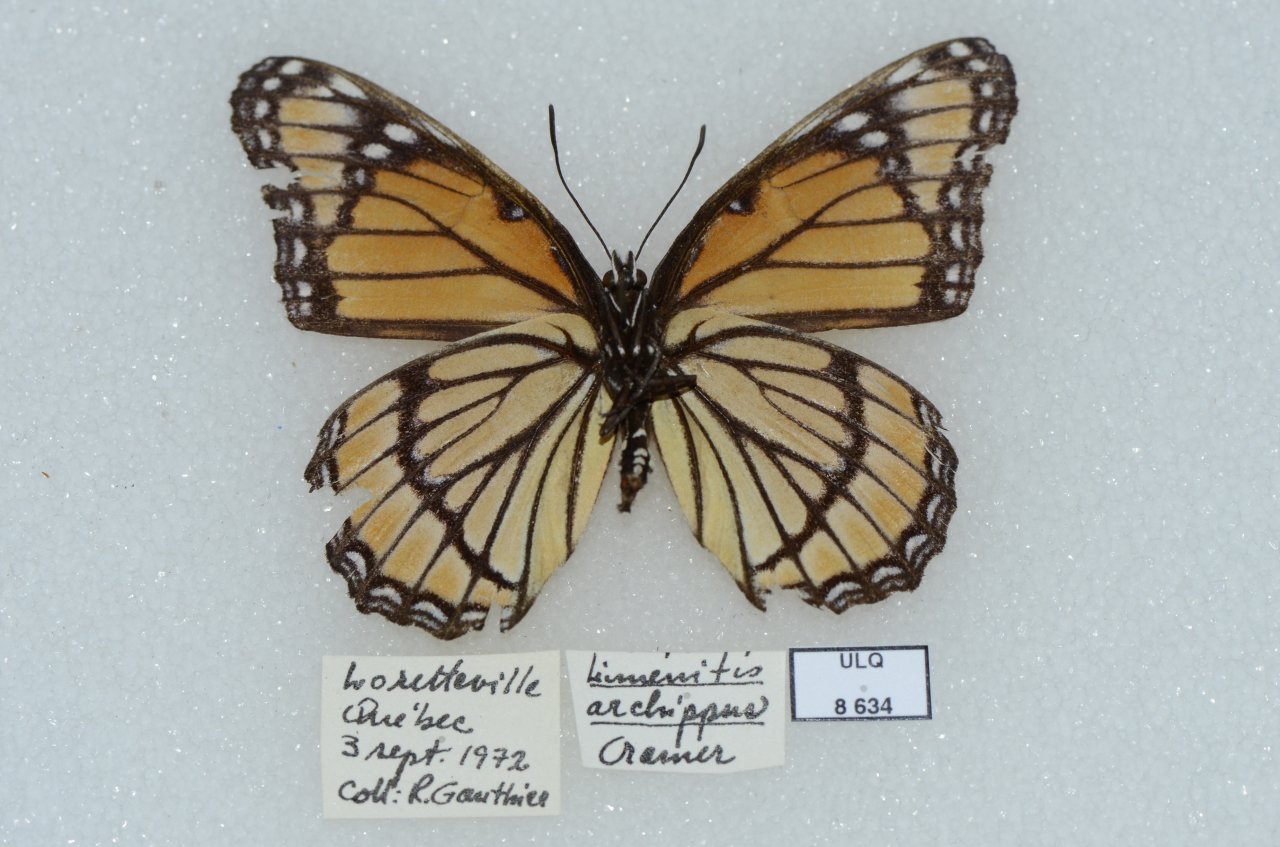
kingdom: Animalia
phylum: Arthropoda
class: Insecta
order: Lepidoptera
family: Nymphalidae
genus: Limenitis
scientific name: Limenitis archippus
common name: Viceroy
